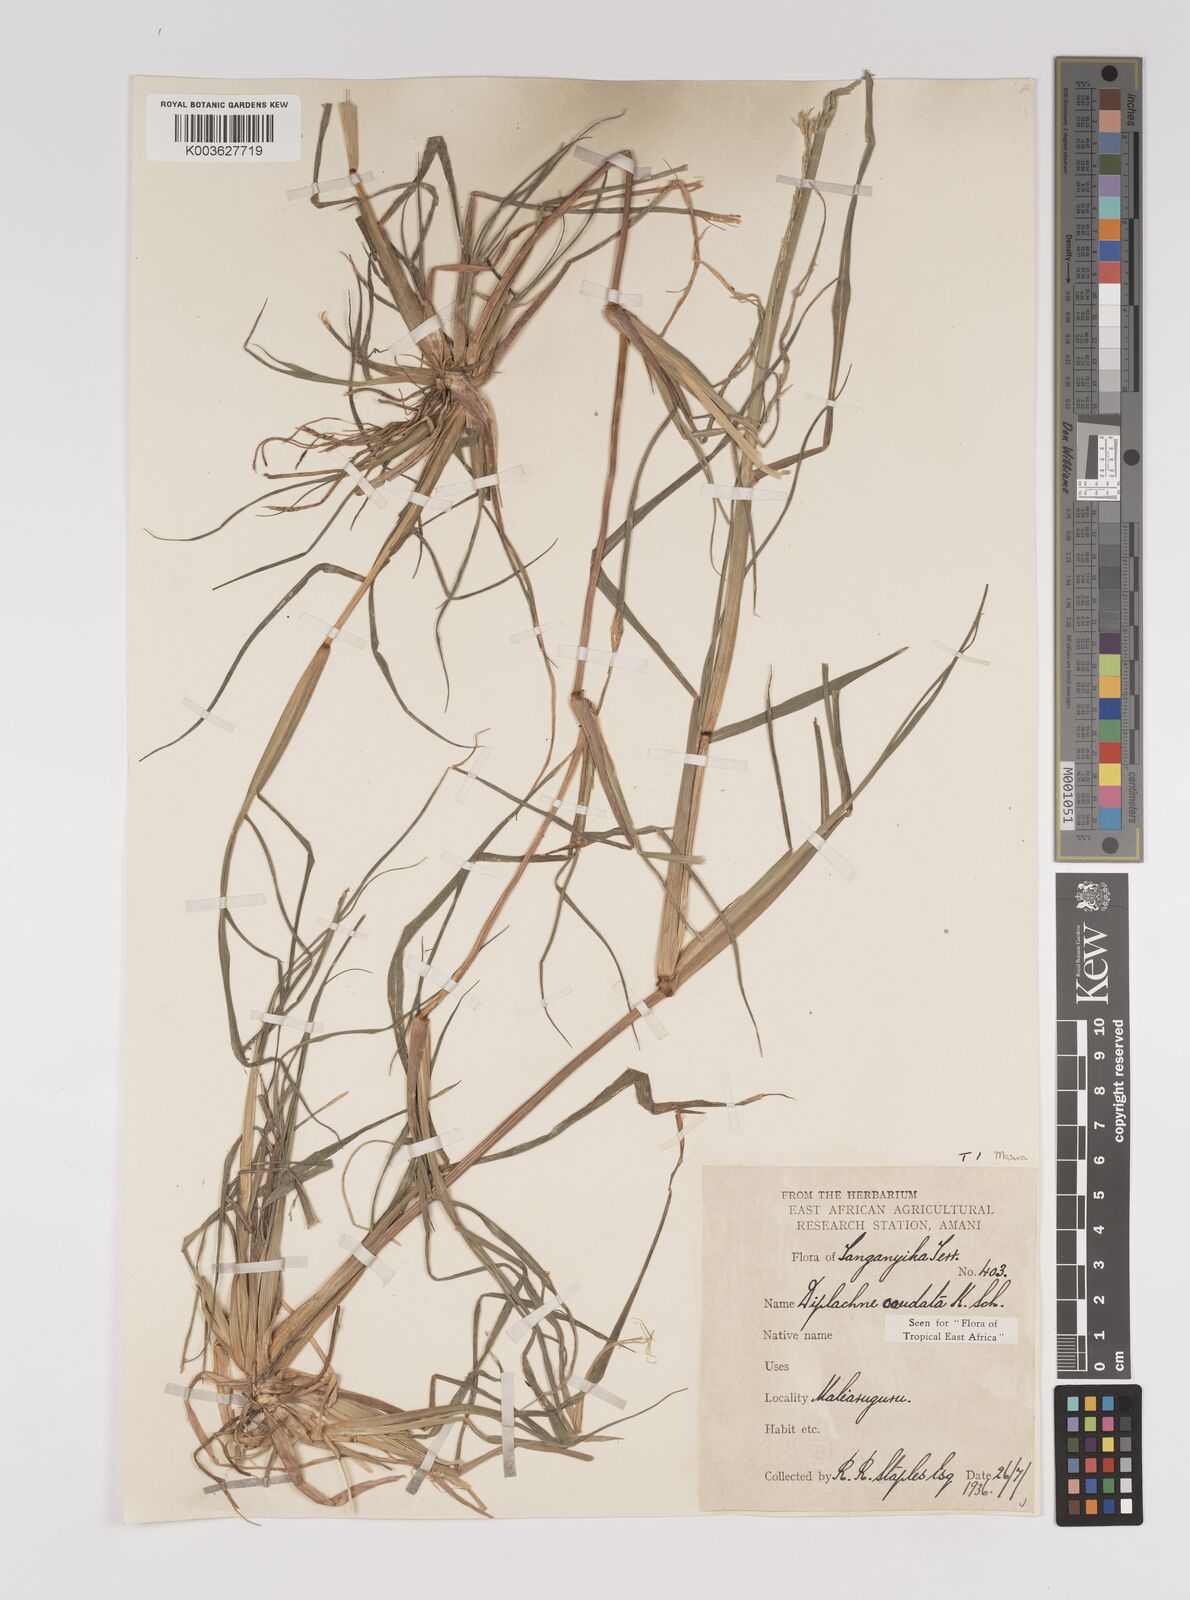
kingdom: Plantae
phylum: Tracheophyta
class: Liliopsida
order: Poales
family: Poaceae
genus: Leptochloa
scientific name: Leptochloa caudata
